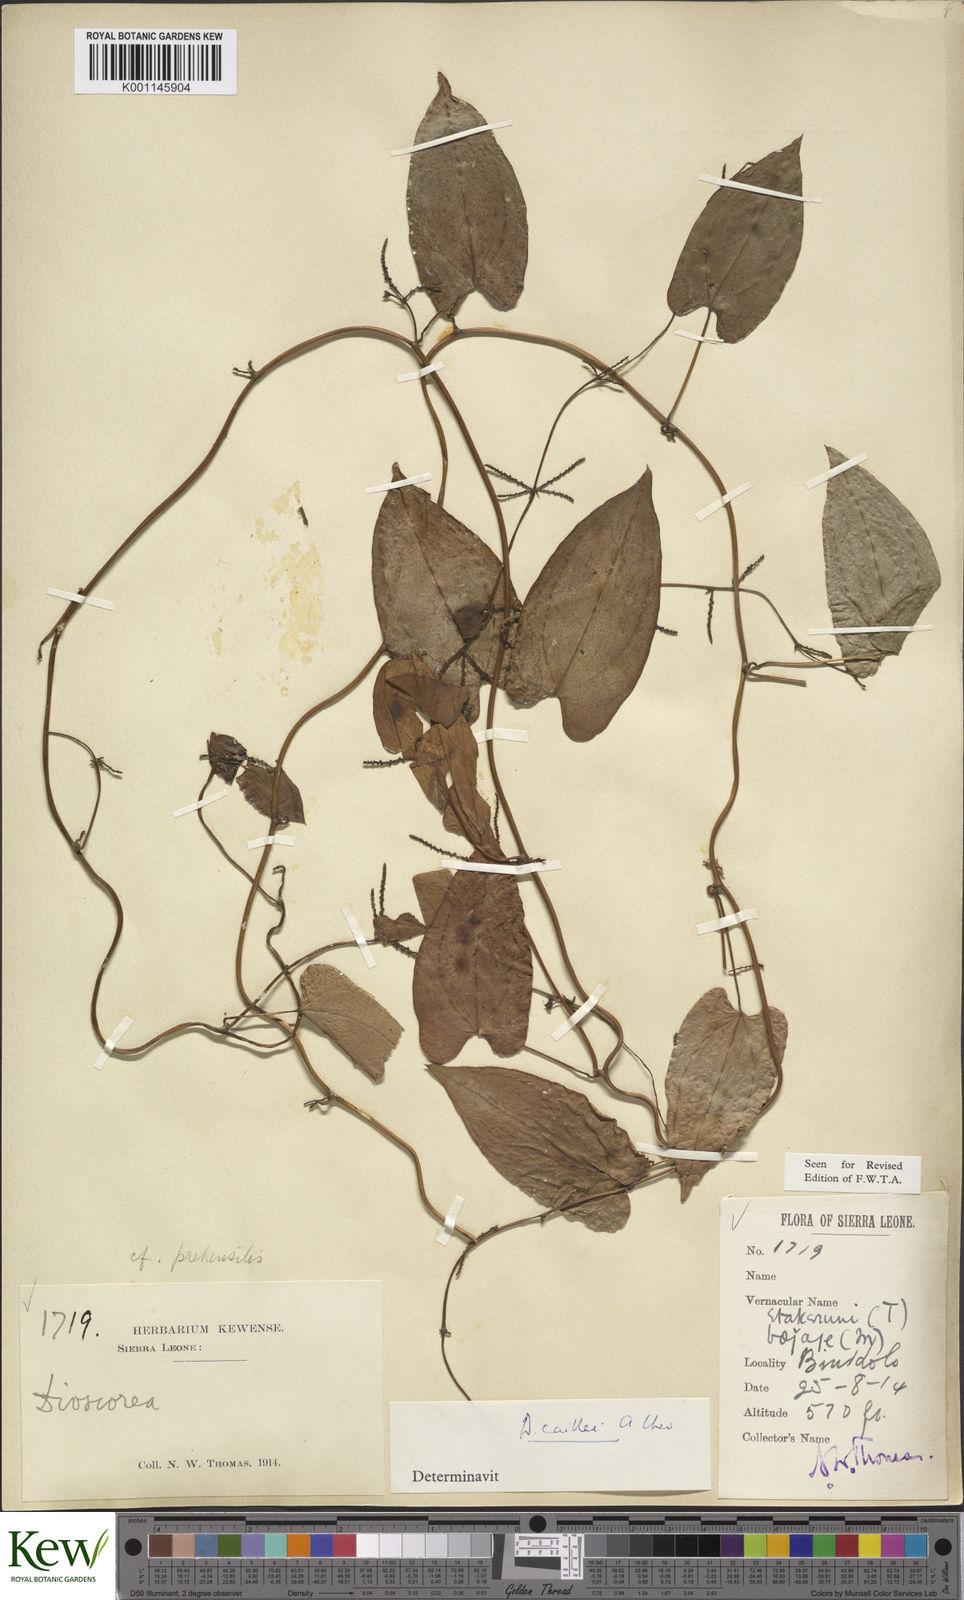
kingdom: Plantae
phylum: Tracheophyta
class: Liliopsida
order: Dioscoreales
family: Dioscoreaceae
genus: Dioscorea
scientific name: Dioscorea togoensis
